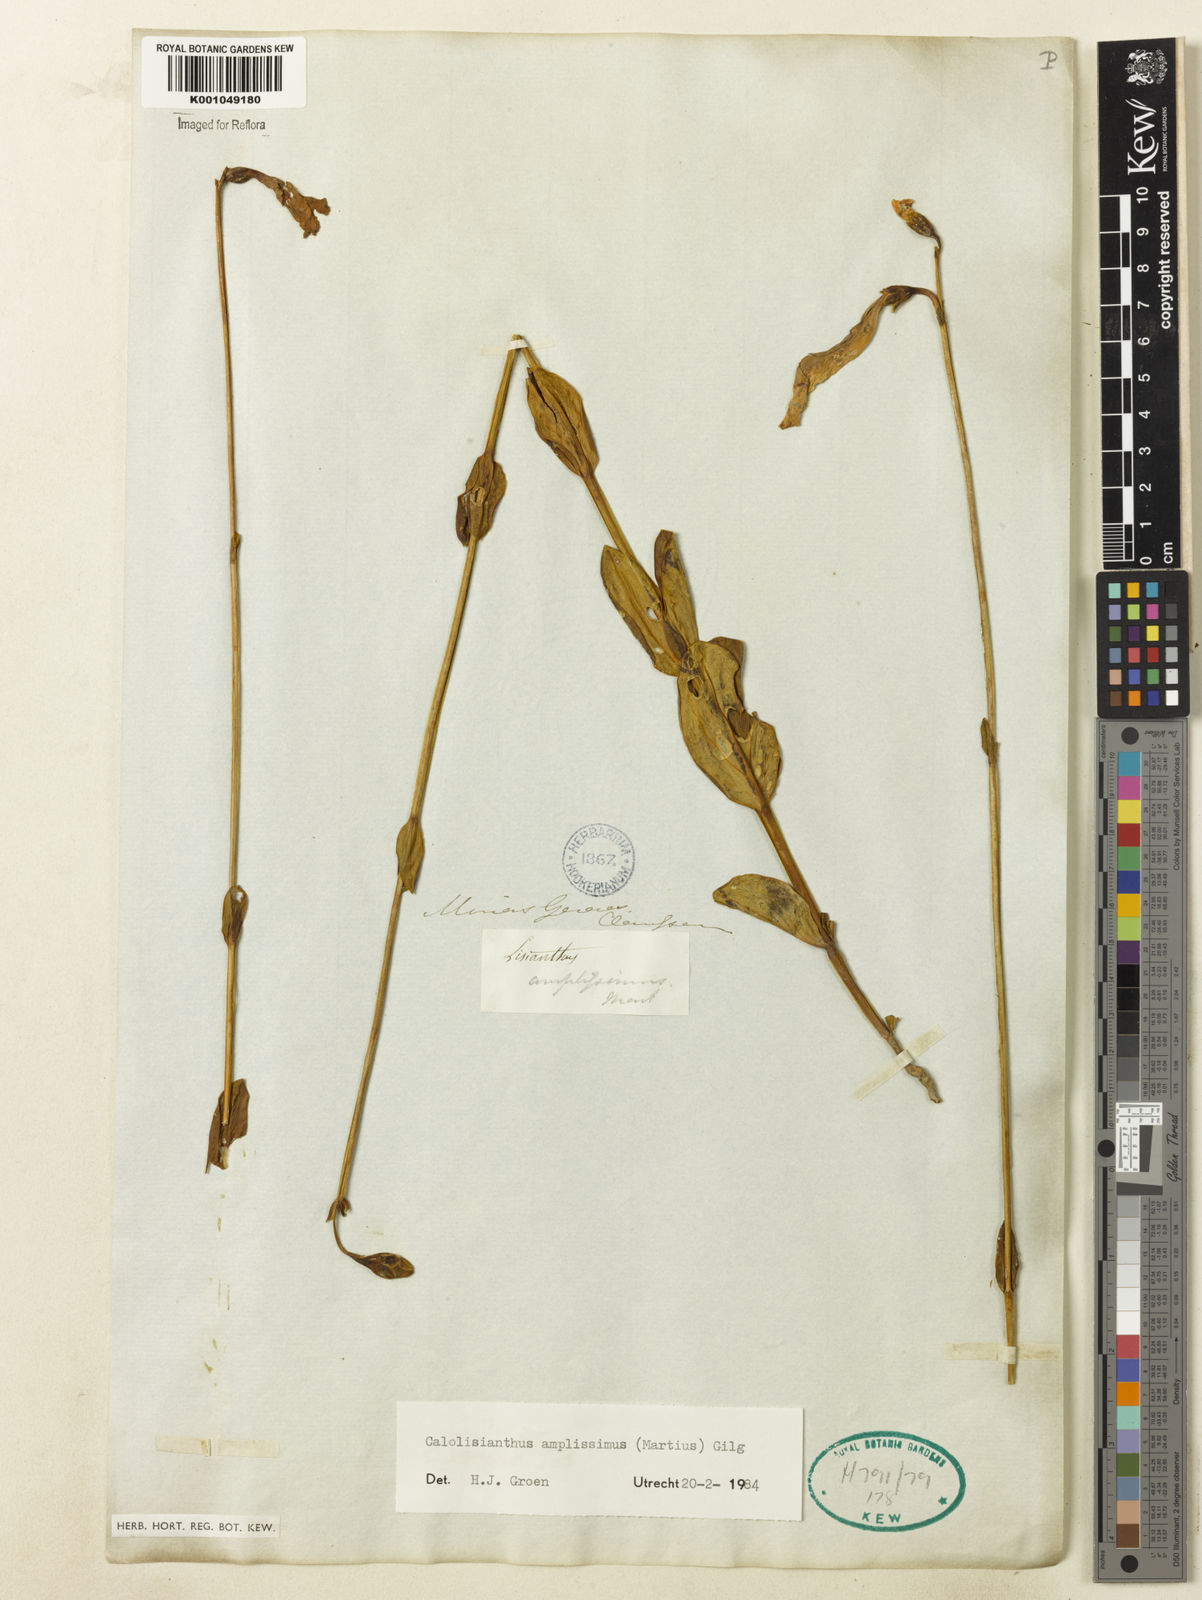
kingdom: Plantae
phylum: Tracheophyta
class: Magnoliopsida
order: Gentianales
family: Gentianaceae
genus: Calolisianthus
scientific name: Calolisianthus amplissimus
